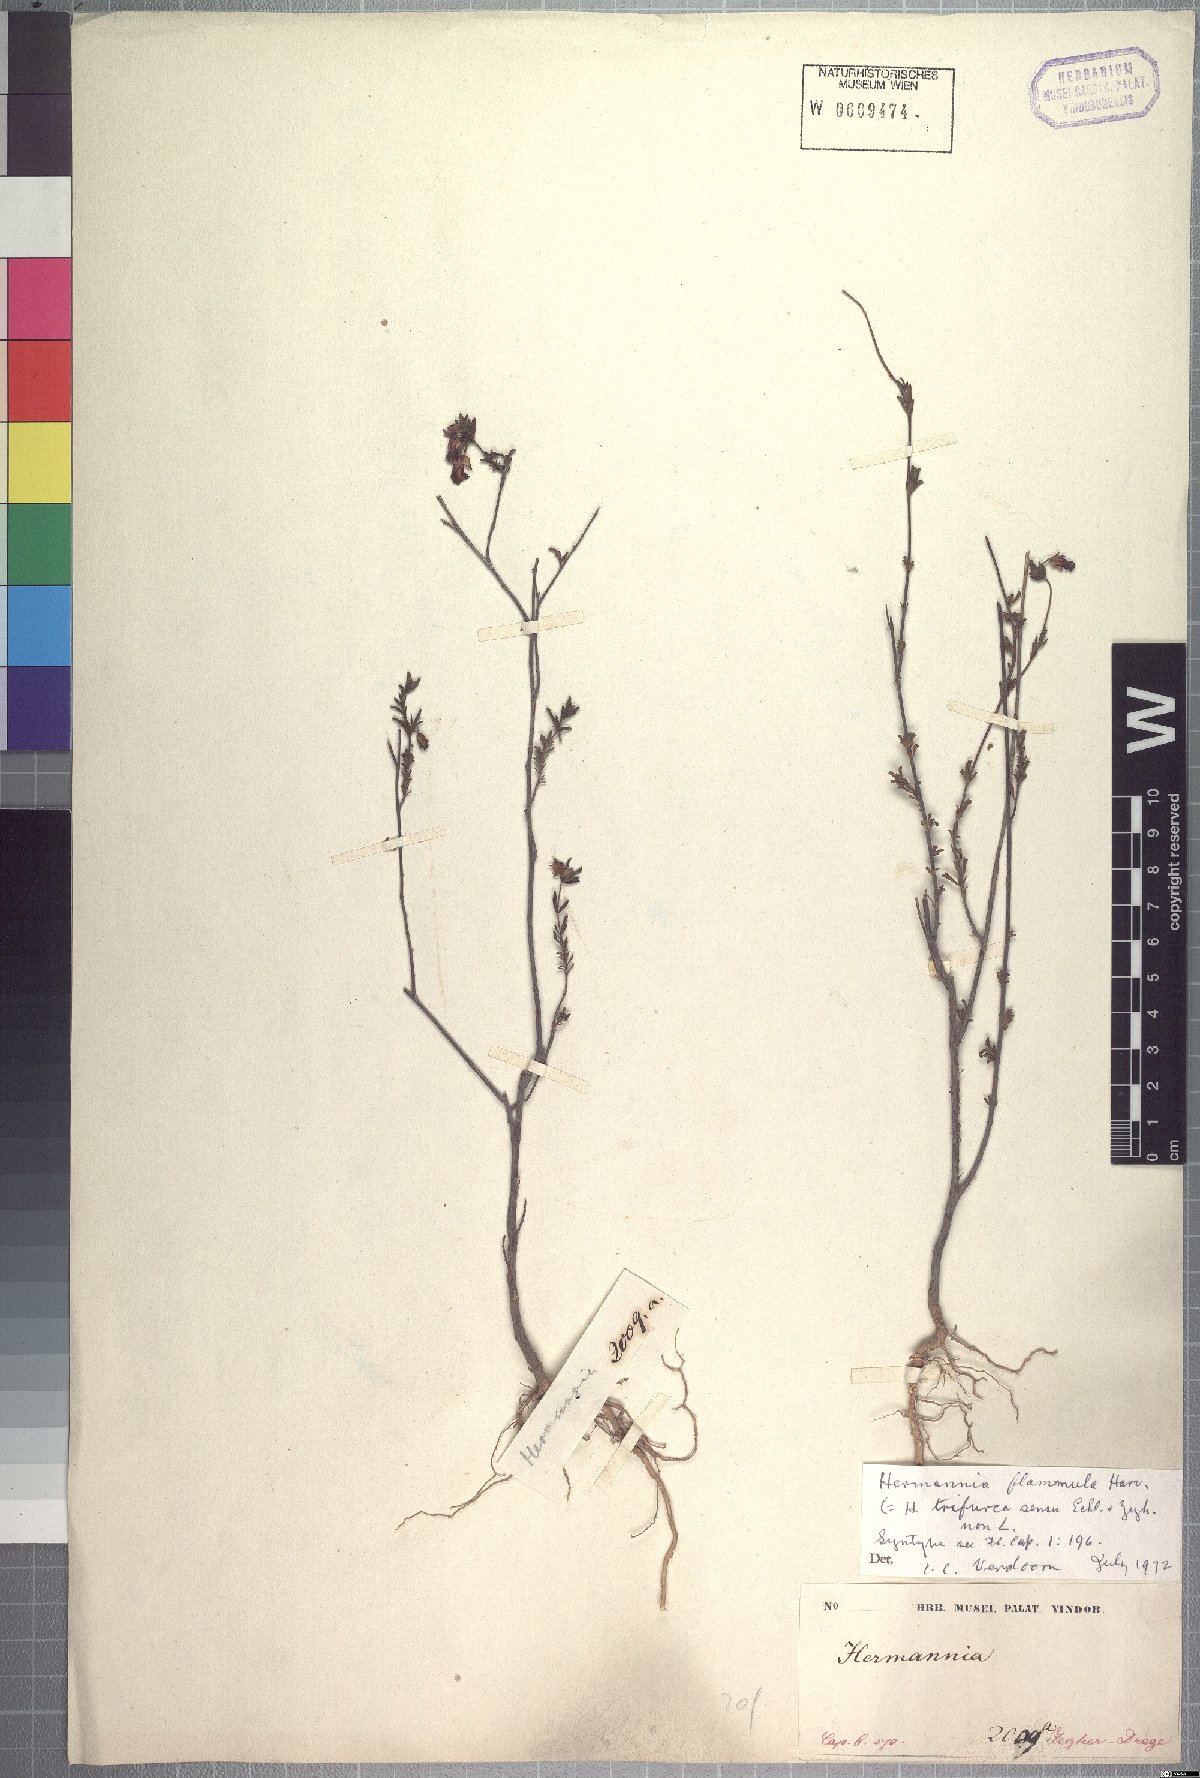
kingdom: Plantae
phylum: Tracheophyta
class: Magnoliopsida
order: Malvales
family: Malvaceae
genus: Hermannia
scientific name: Hermannia flammula
